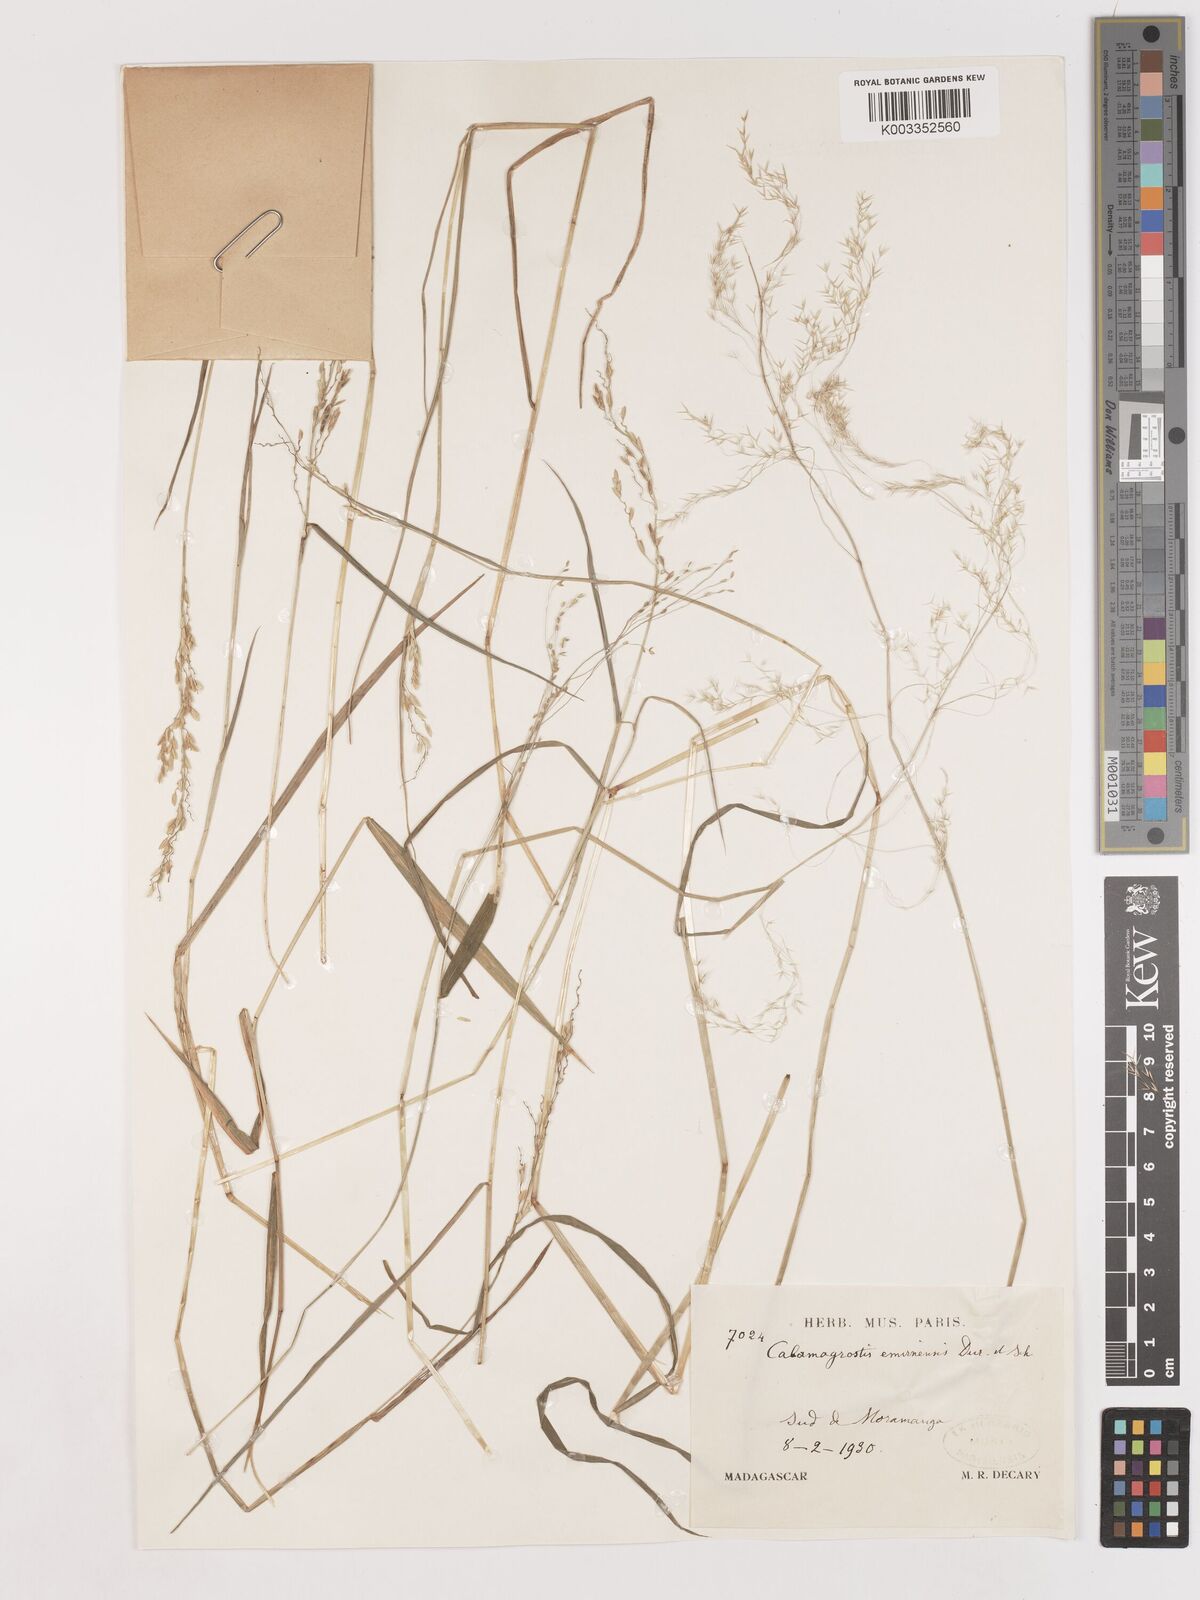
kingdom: Plantae
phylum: Tracheophyta
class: Liliopsida
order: Poales
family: Poaceae
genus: Agrostis
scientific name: Agrostis emirnensis
